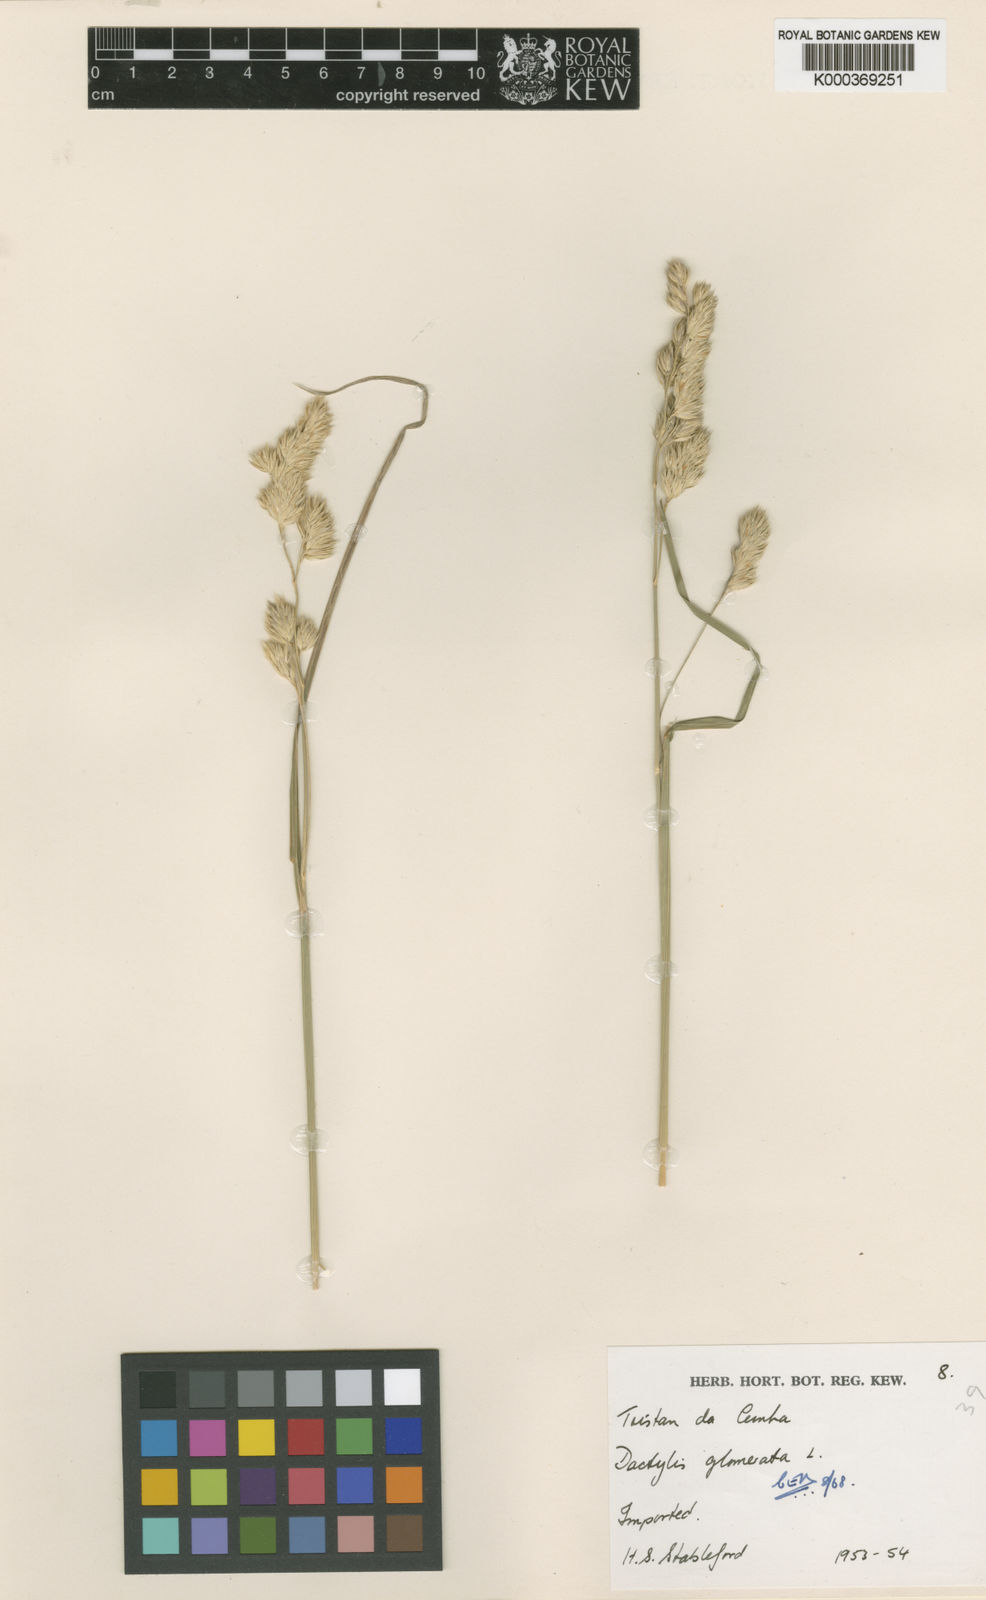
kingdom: Plantae
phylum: Tracheophyta
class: Liliopsida
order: Poales
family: Poaceae
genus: Dactylis
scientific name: Dactylis glomerata
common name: Orchardgrass
